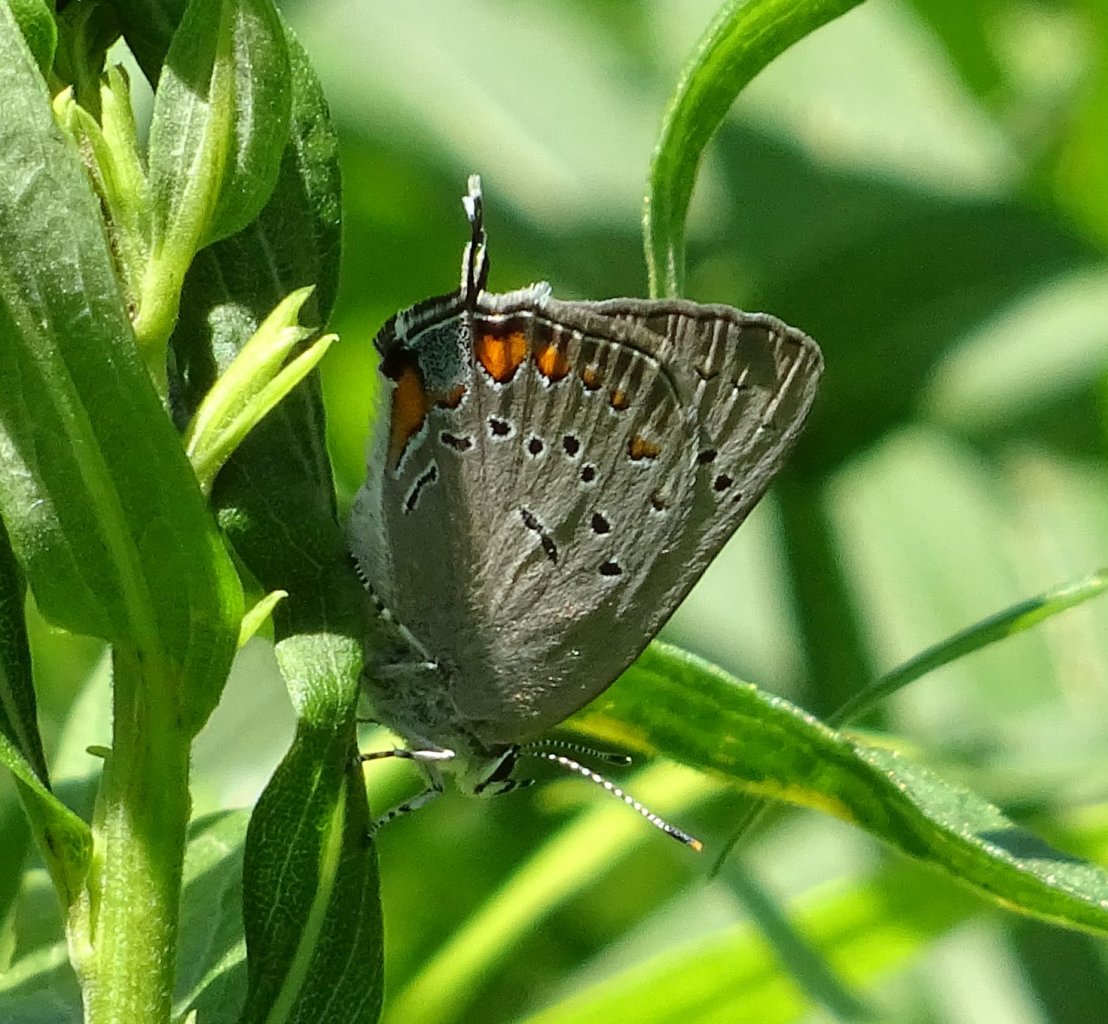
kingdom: Animalia
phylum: Arthropoda
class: Insecta
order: Lepidoptera
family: Lycaenidae
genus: Strymon
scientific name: Strymon acadica
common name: Acadian Hairstreak
